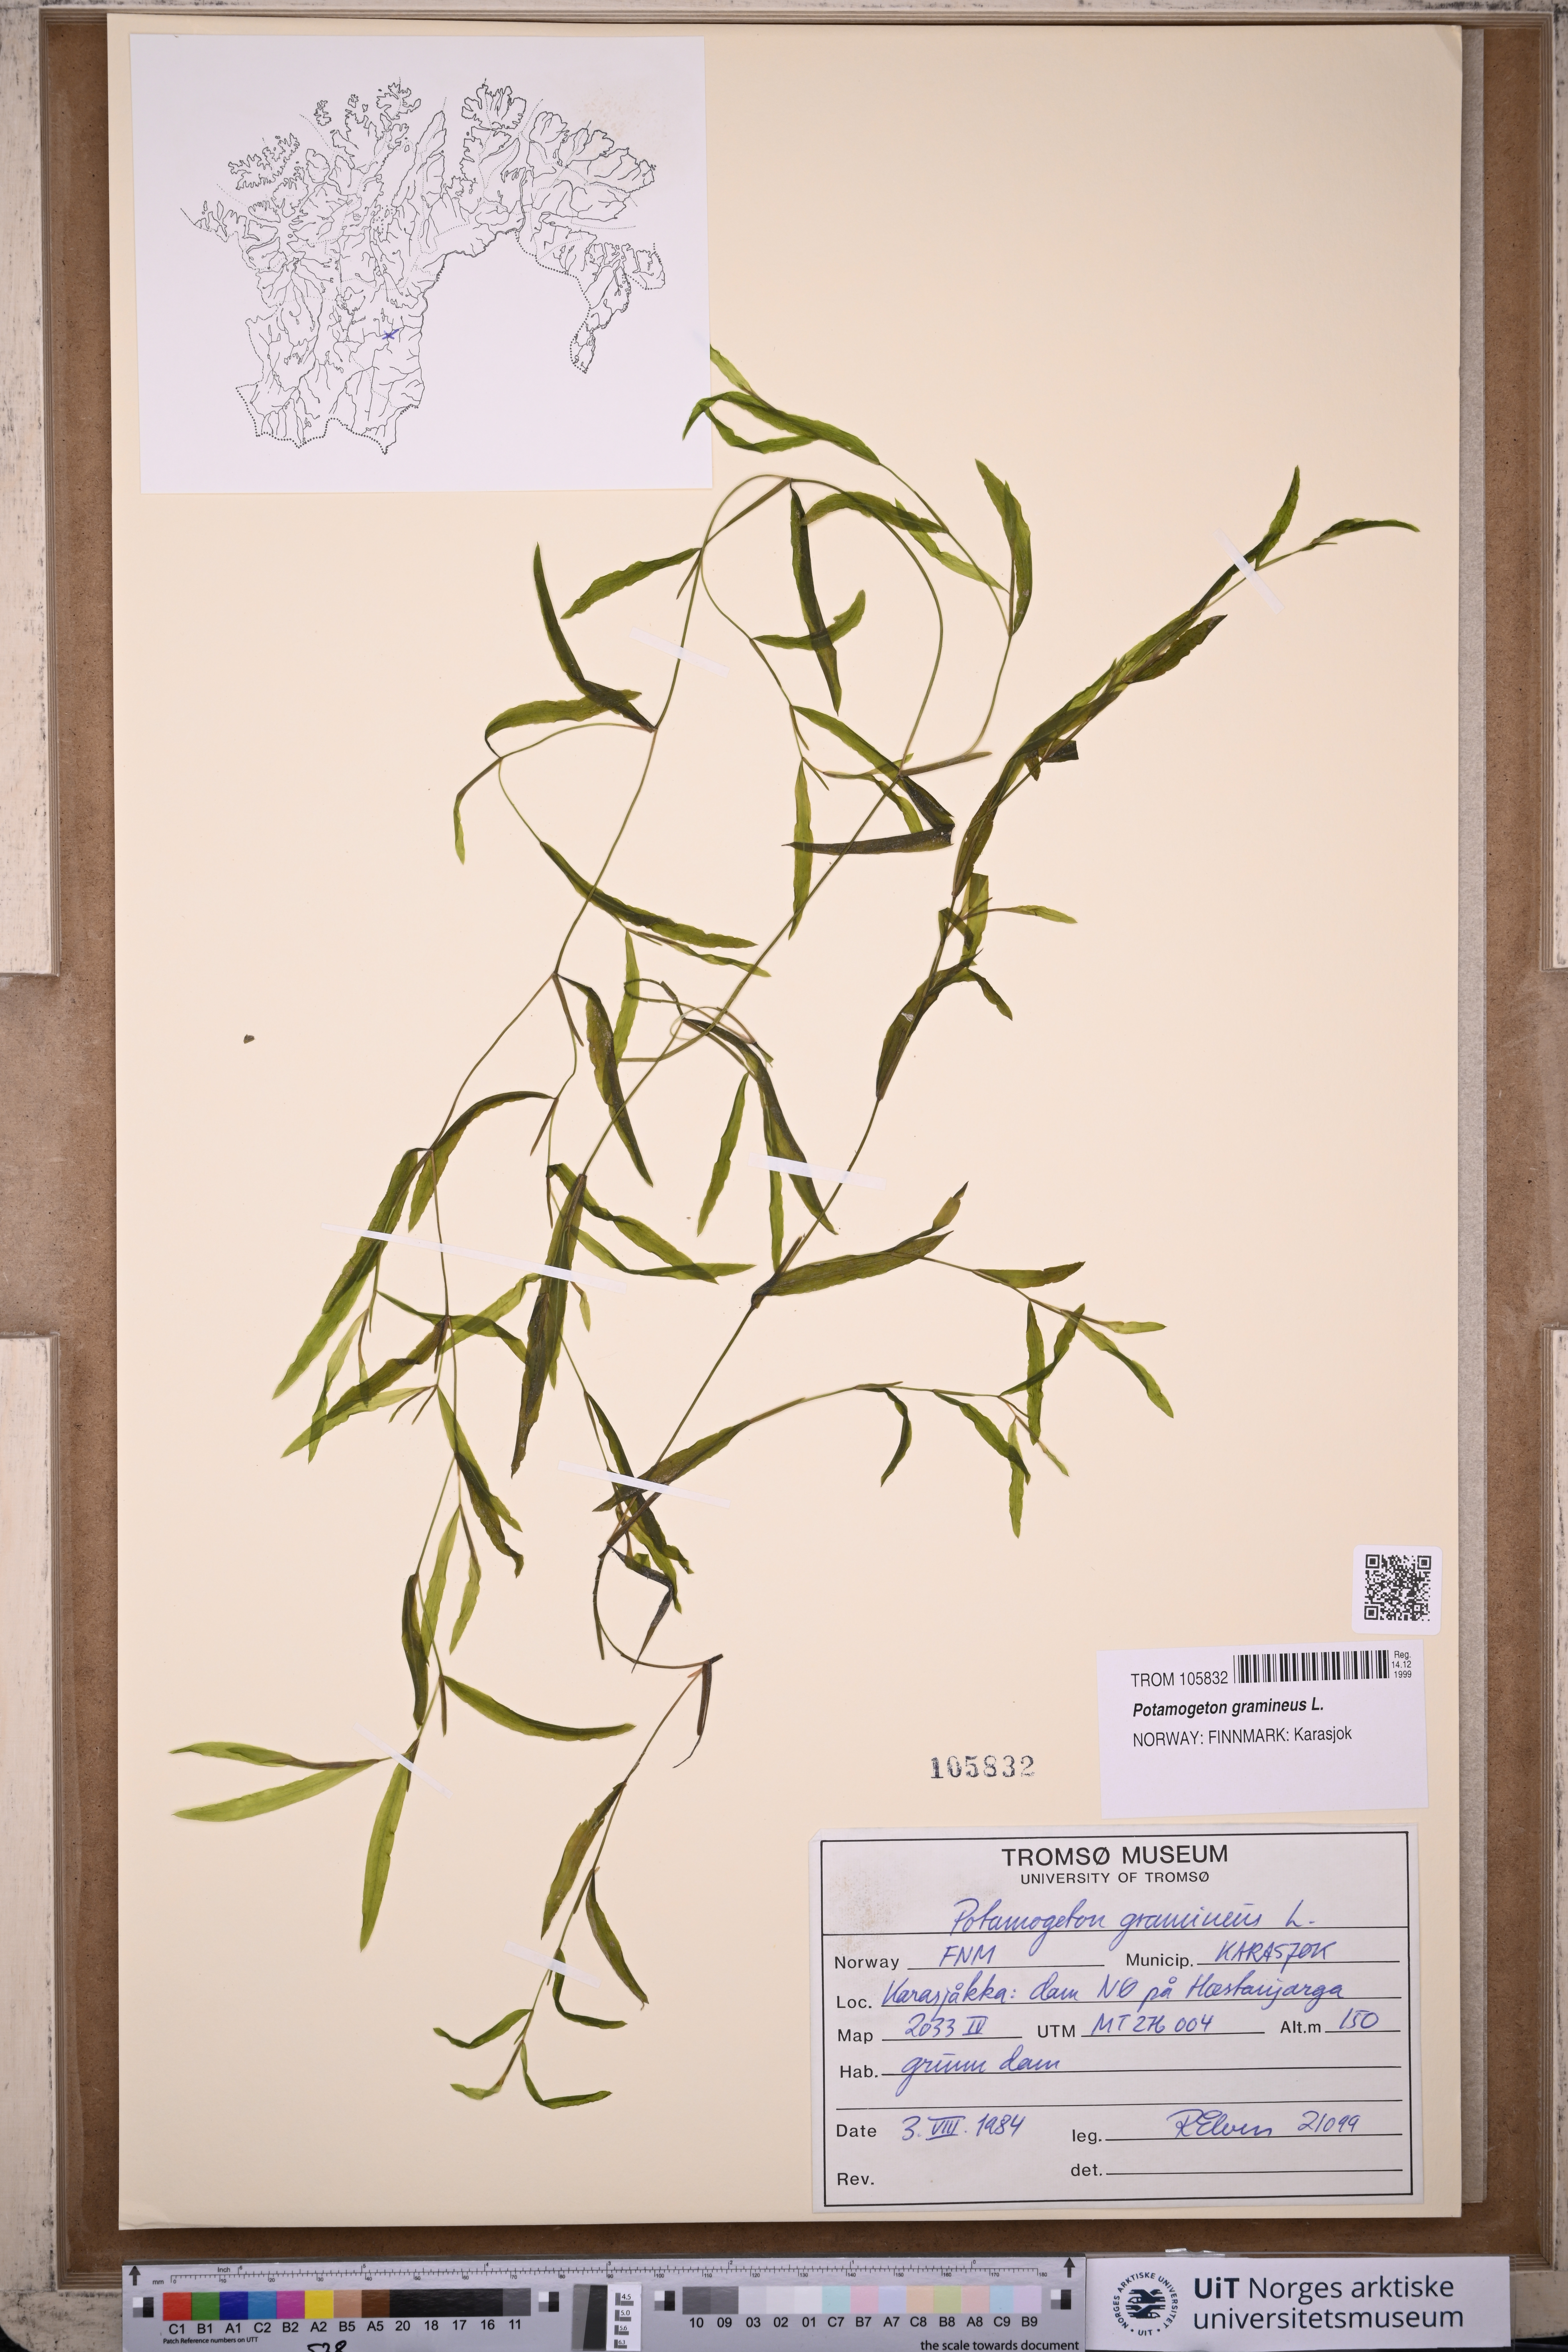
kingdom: Plantae
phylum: Tracheophyta
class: Liliopsida
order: Alismatales
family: Potamogetonaceae
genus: Potamogeton
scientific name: Potamogeton gramineus
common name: Various-leaved pondweed
